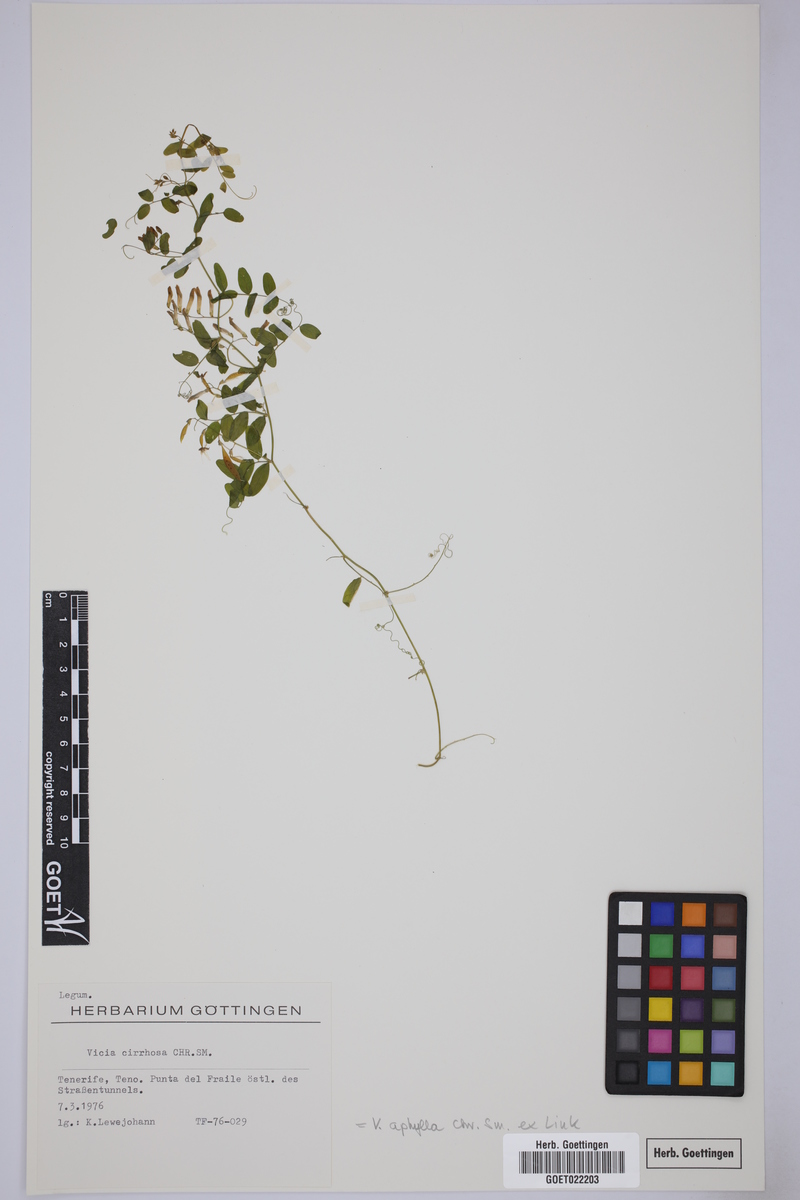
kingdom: Plantae
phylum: Tracheophyta
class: Magnoliopsida
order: Fabales
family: Fabaceae
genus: Vicia
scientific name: Vicia aphylla
